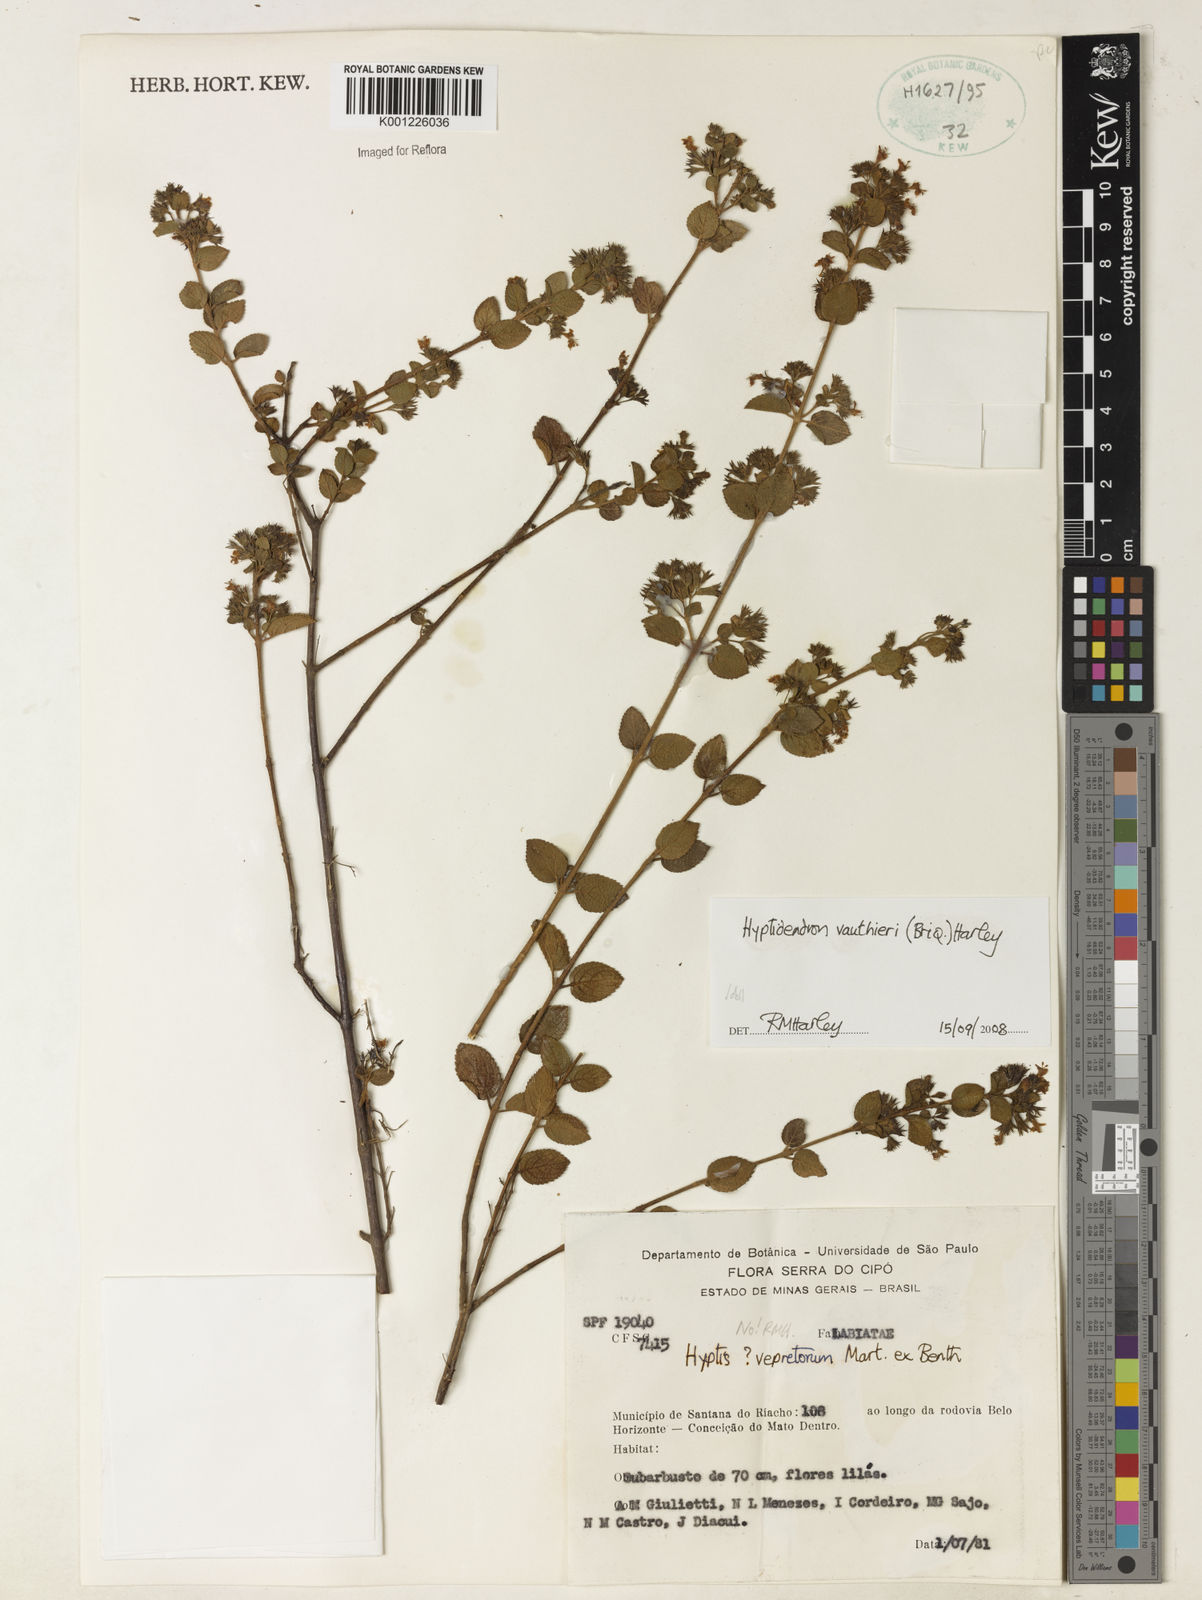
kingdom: Plantae
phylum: Tracheophyta
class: Magnoliopsida
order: Lamiales
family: Lamiaceae
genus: Hyptidendron
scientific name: Hyptidendron vauthieri
